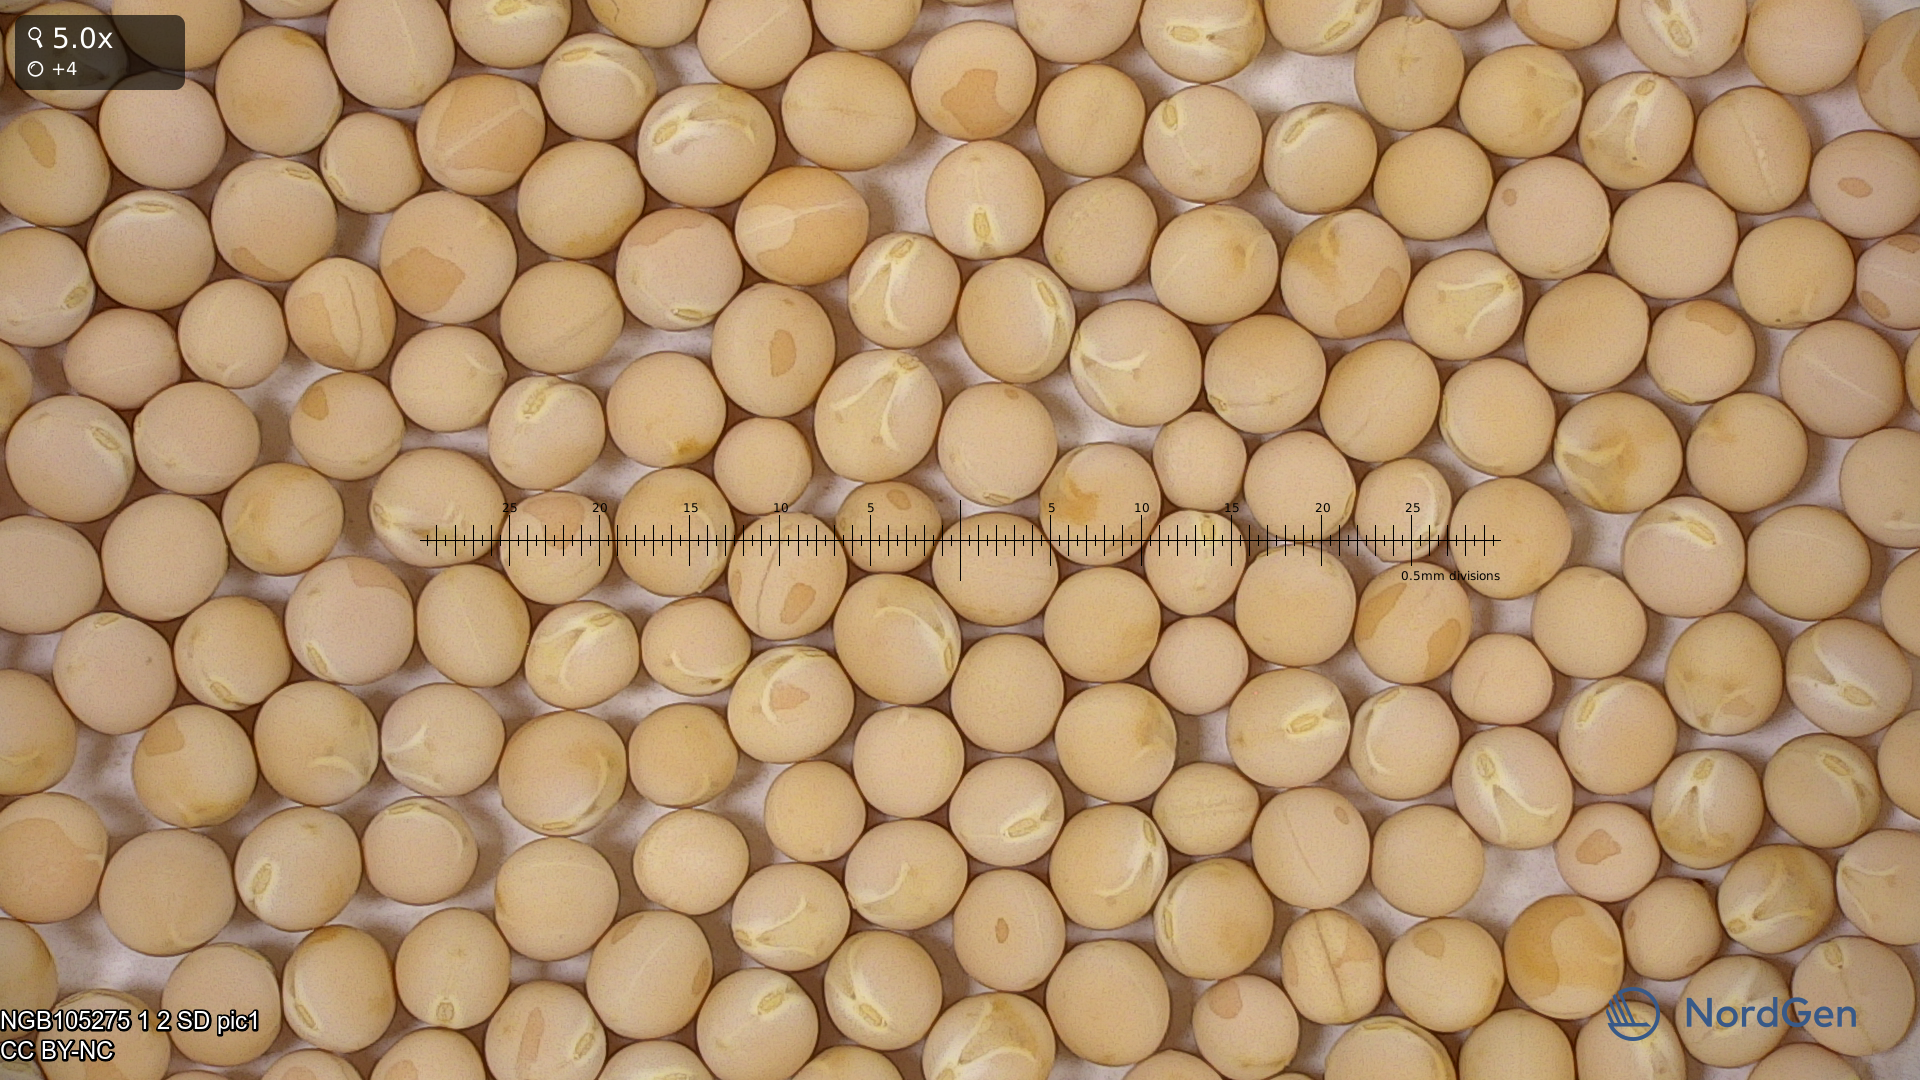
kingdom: Plantae
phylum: Tracheophyta
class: Magnoliopsida
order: Fabales
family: Fabaceae
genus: Lathyrus
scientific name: Lathyrus oleraceus
